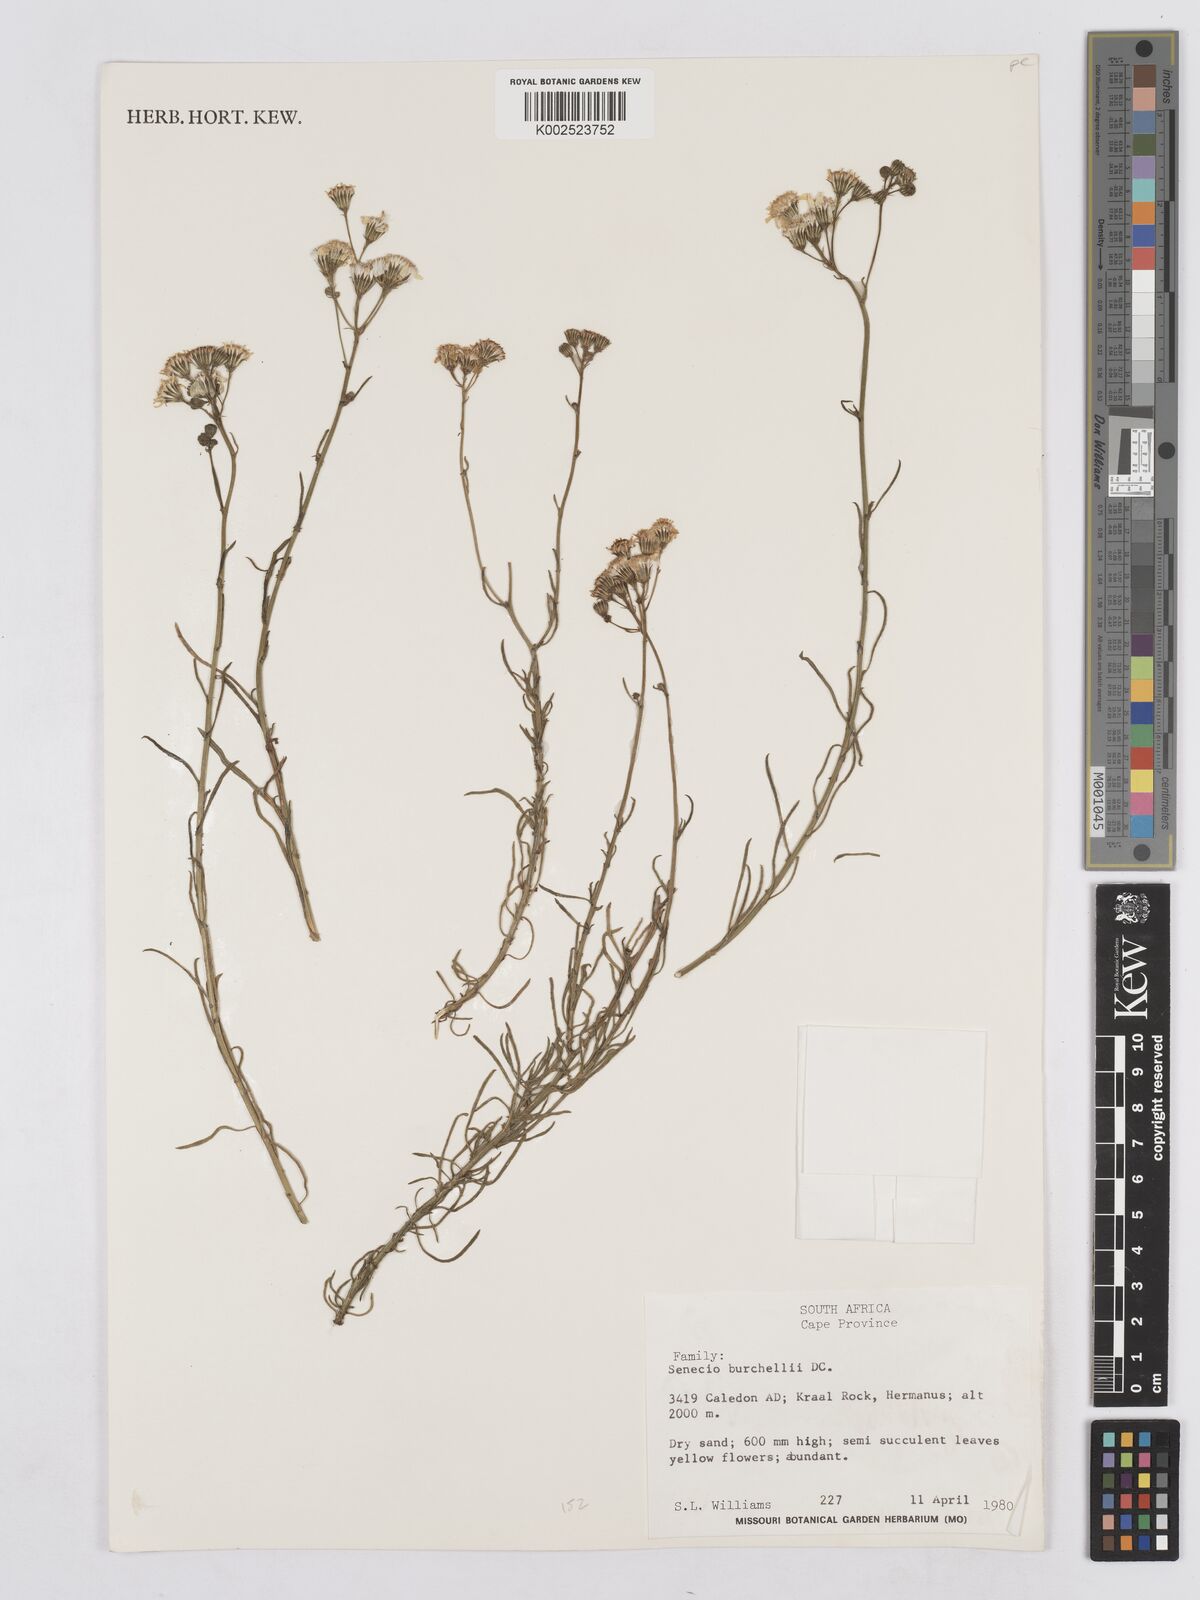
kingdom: Plantae
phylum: Tracheophyta
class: Magnoliopsida
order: Asterales
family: Asteraceae
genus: Senecio
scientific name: Senecio burchellii
